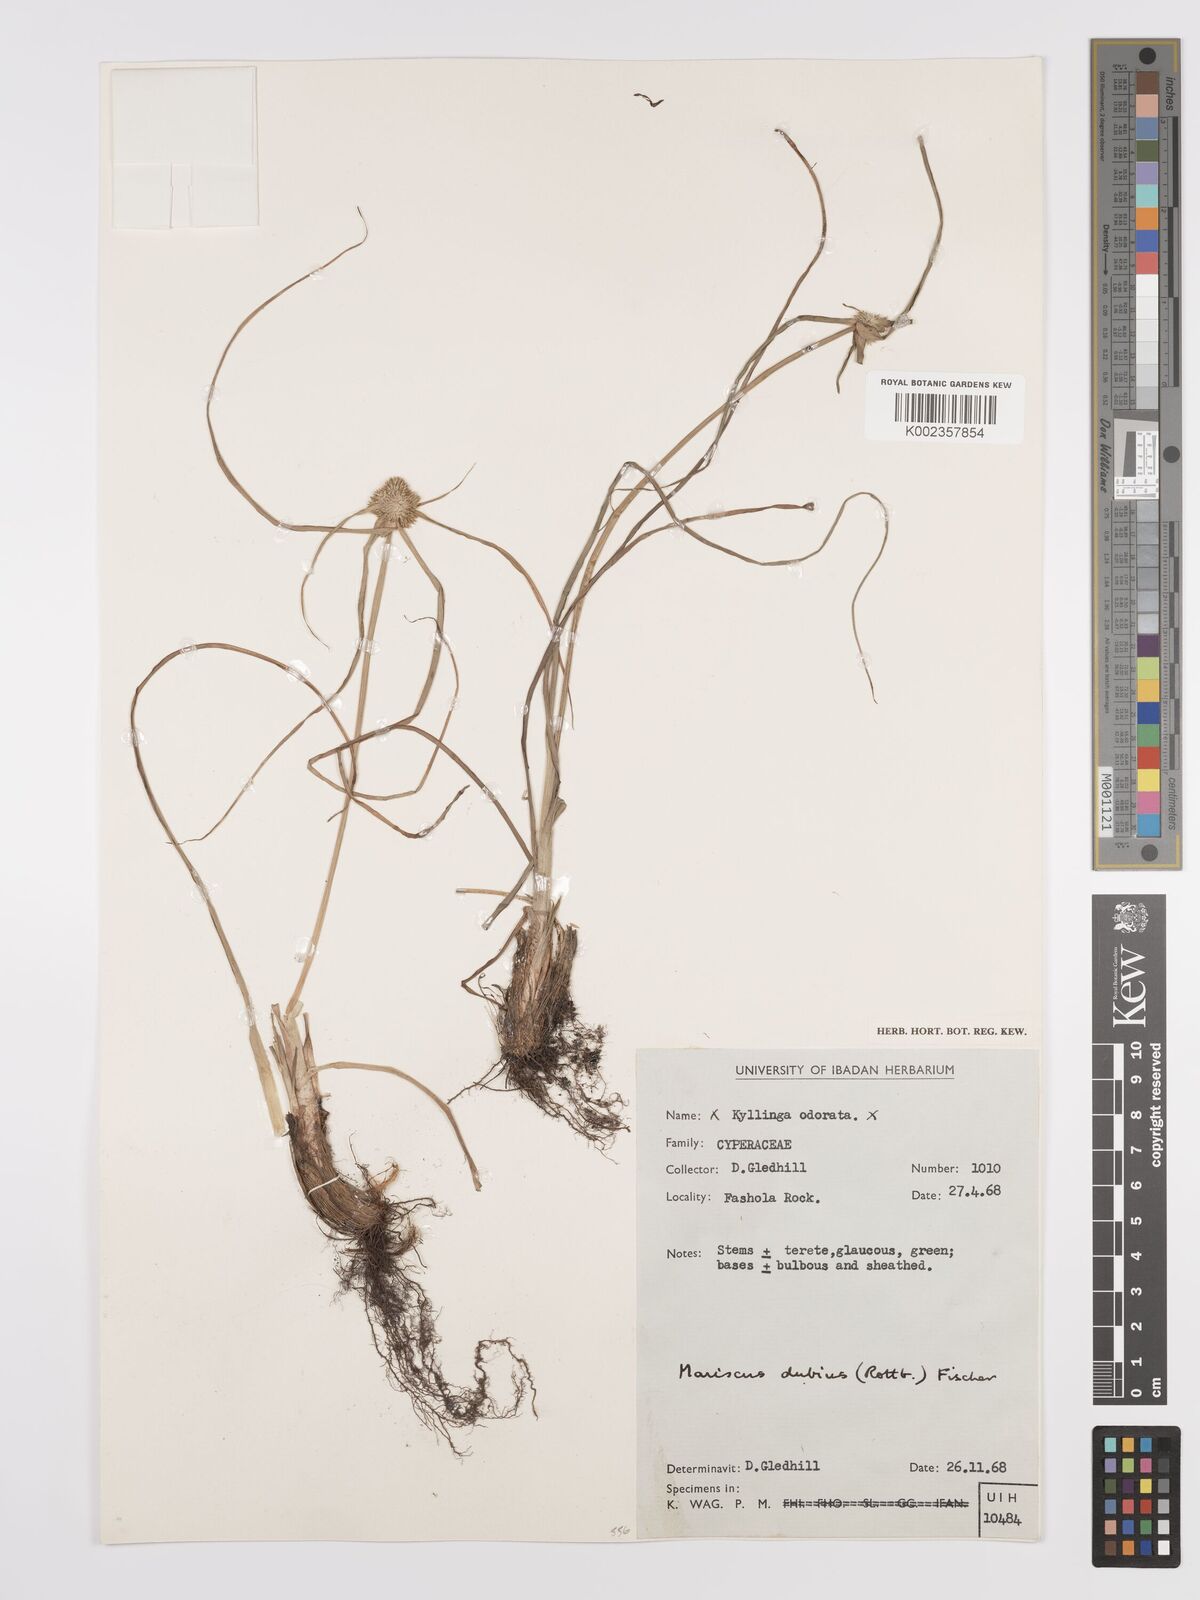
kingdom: Plantae
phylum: Tracheophyta
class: Liliopsida
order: Poales
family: Cyperaceae
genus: Cyperus
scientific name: Cyperus dubius
